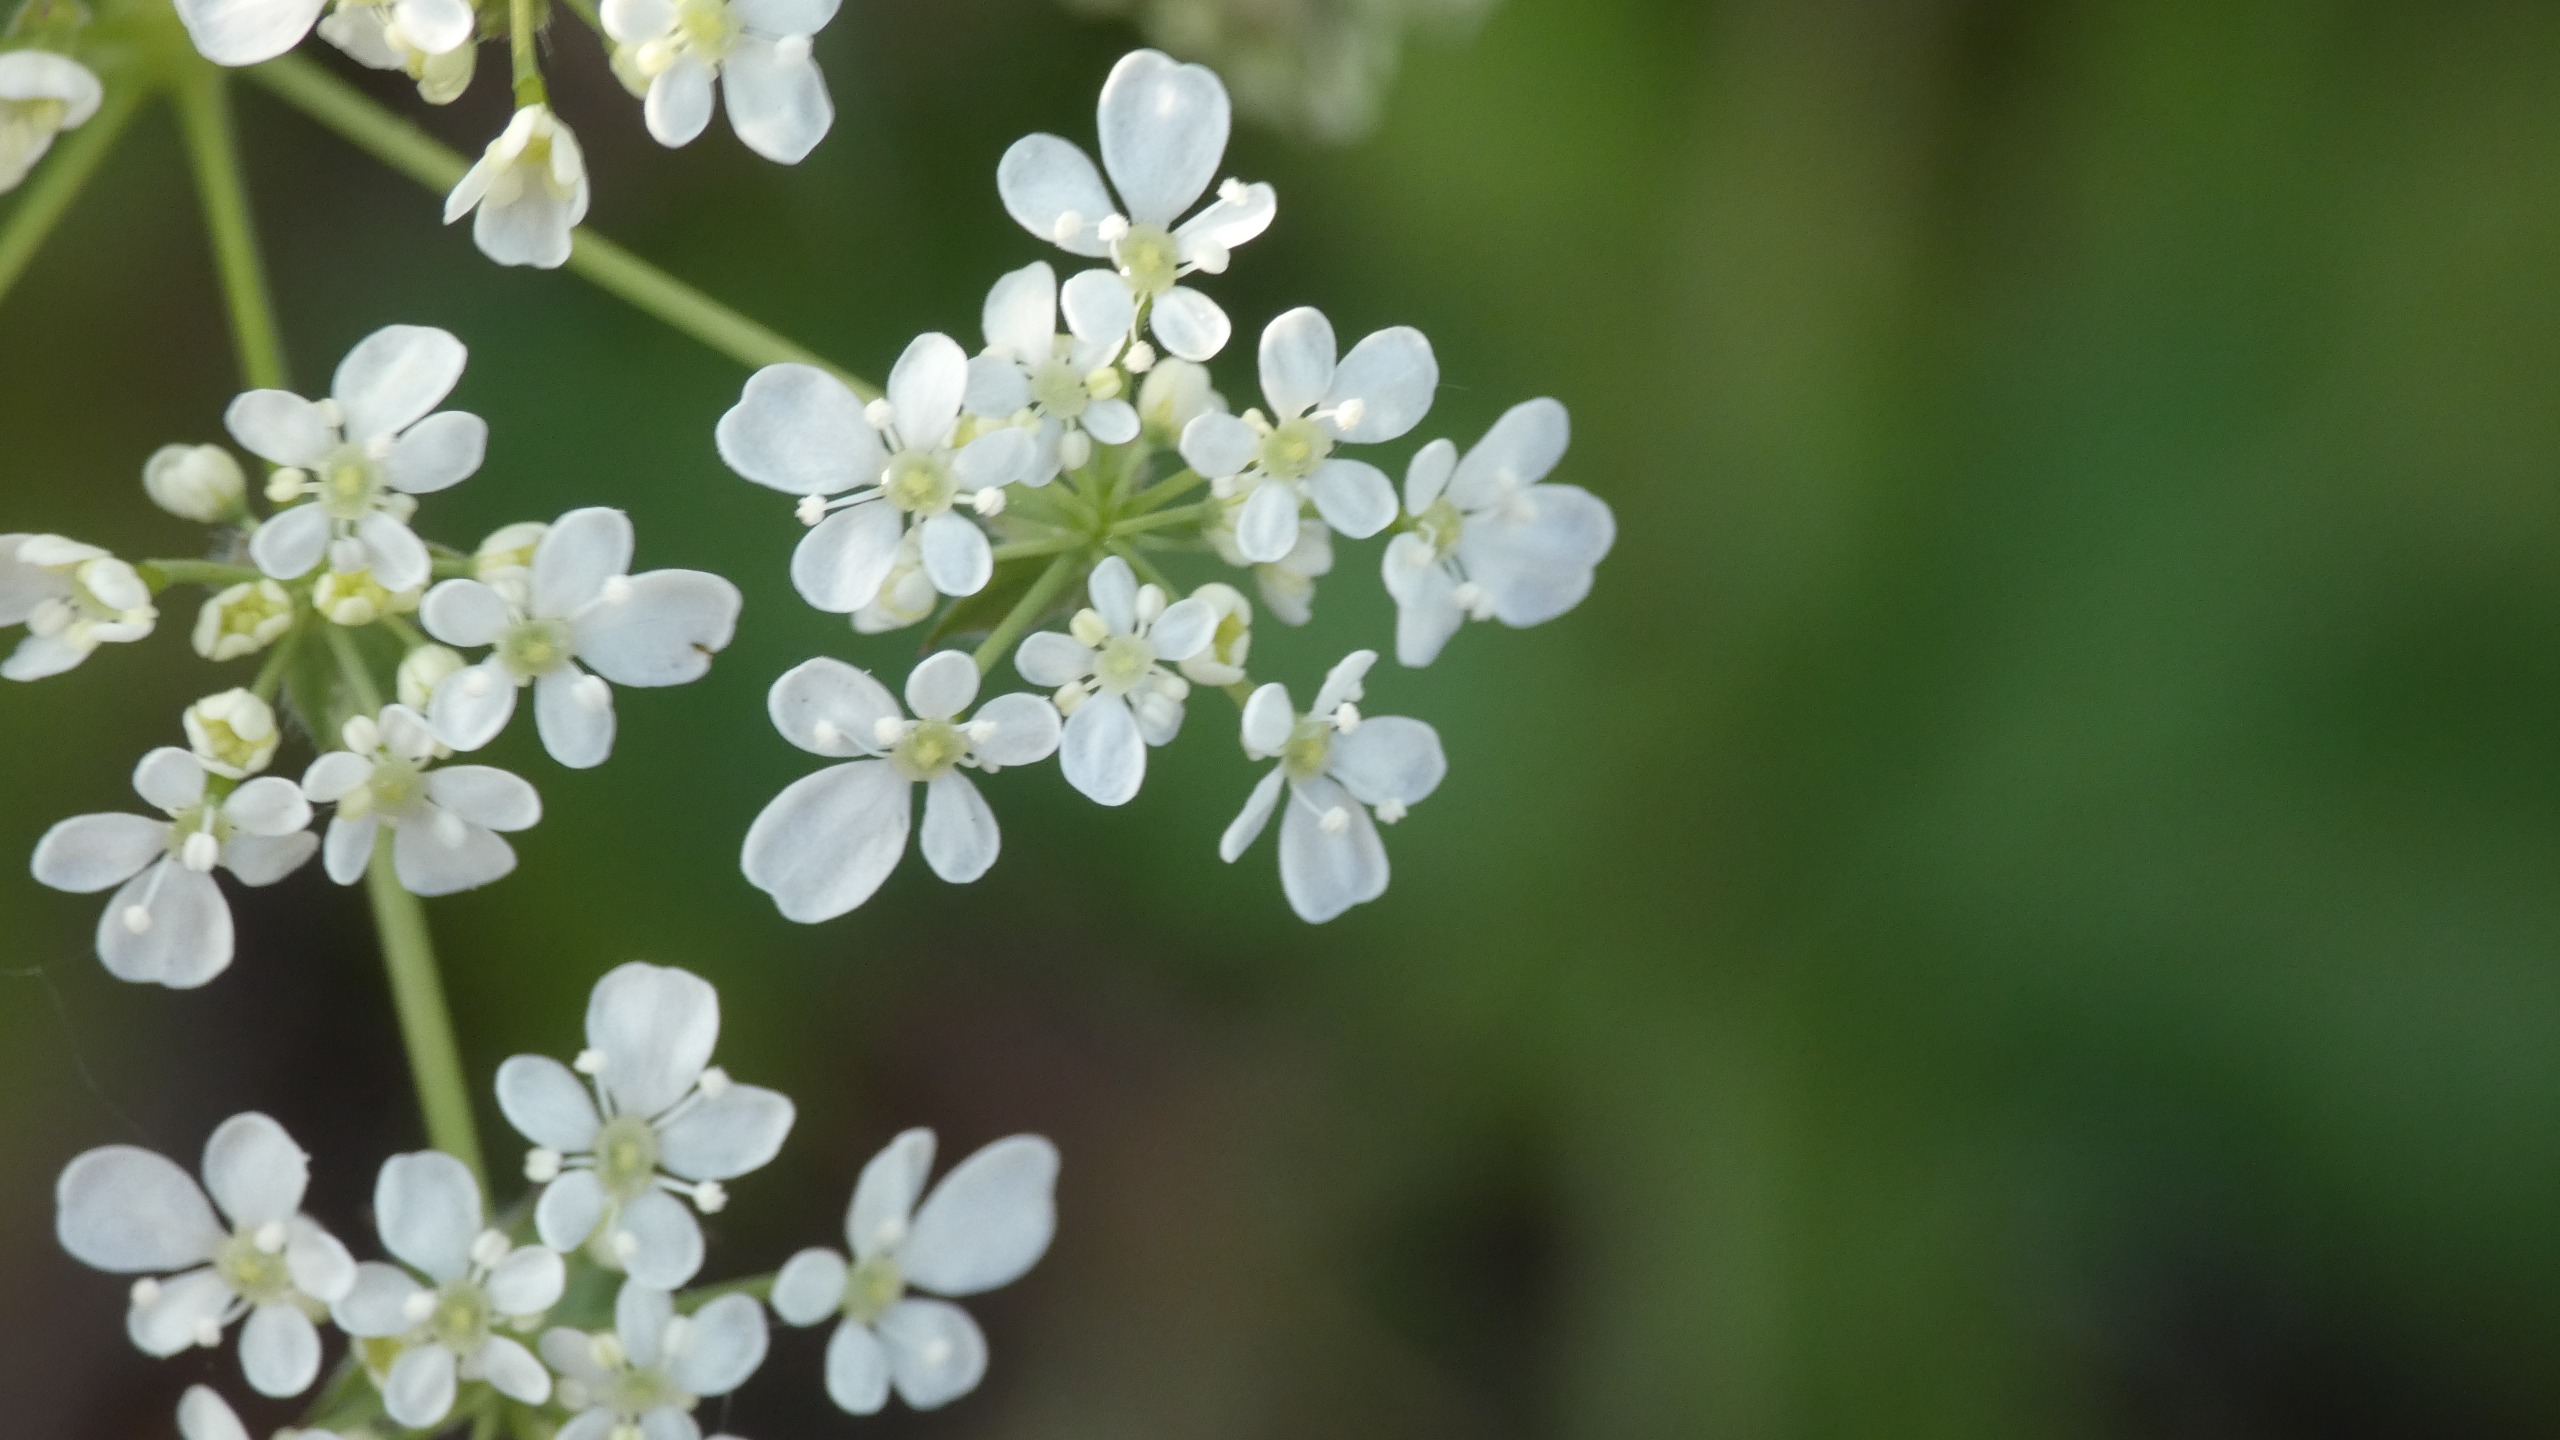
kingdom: Plantae
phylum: Tracheophyta
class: Magnoliopsida
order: Apiales
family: Apiaceae
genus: Anthriscus
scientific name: Anthriscus sylvestris
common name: Vild kørvel
